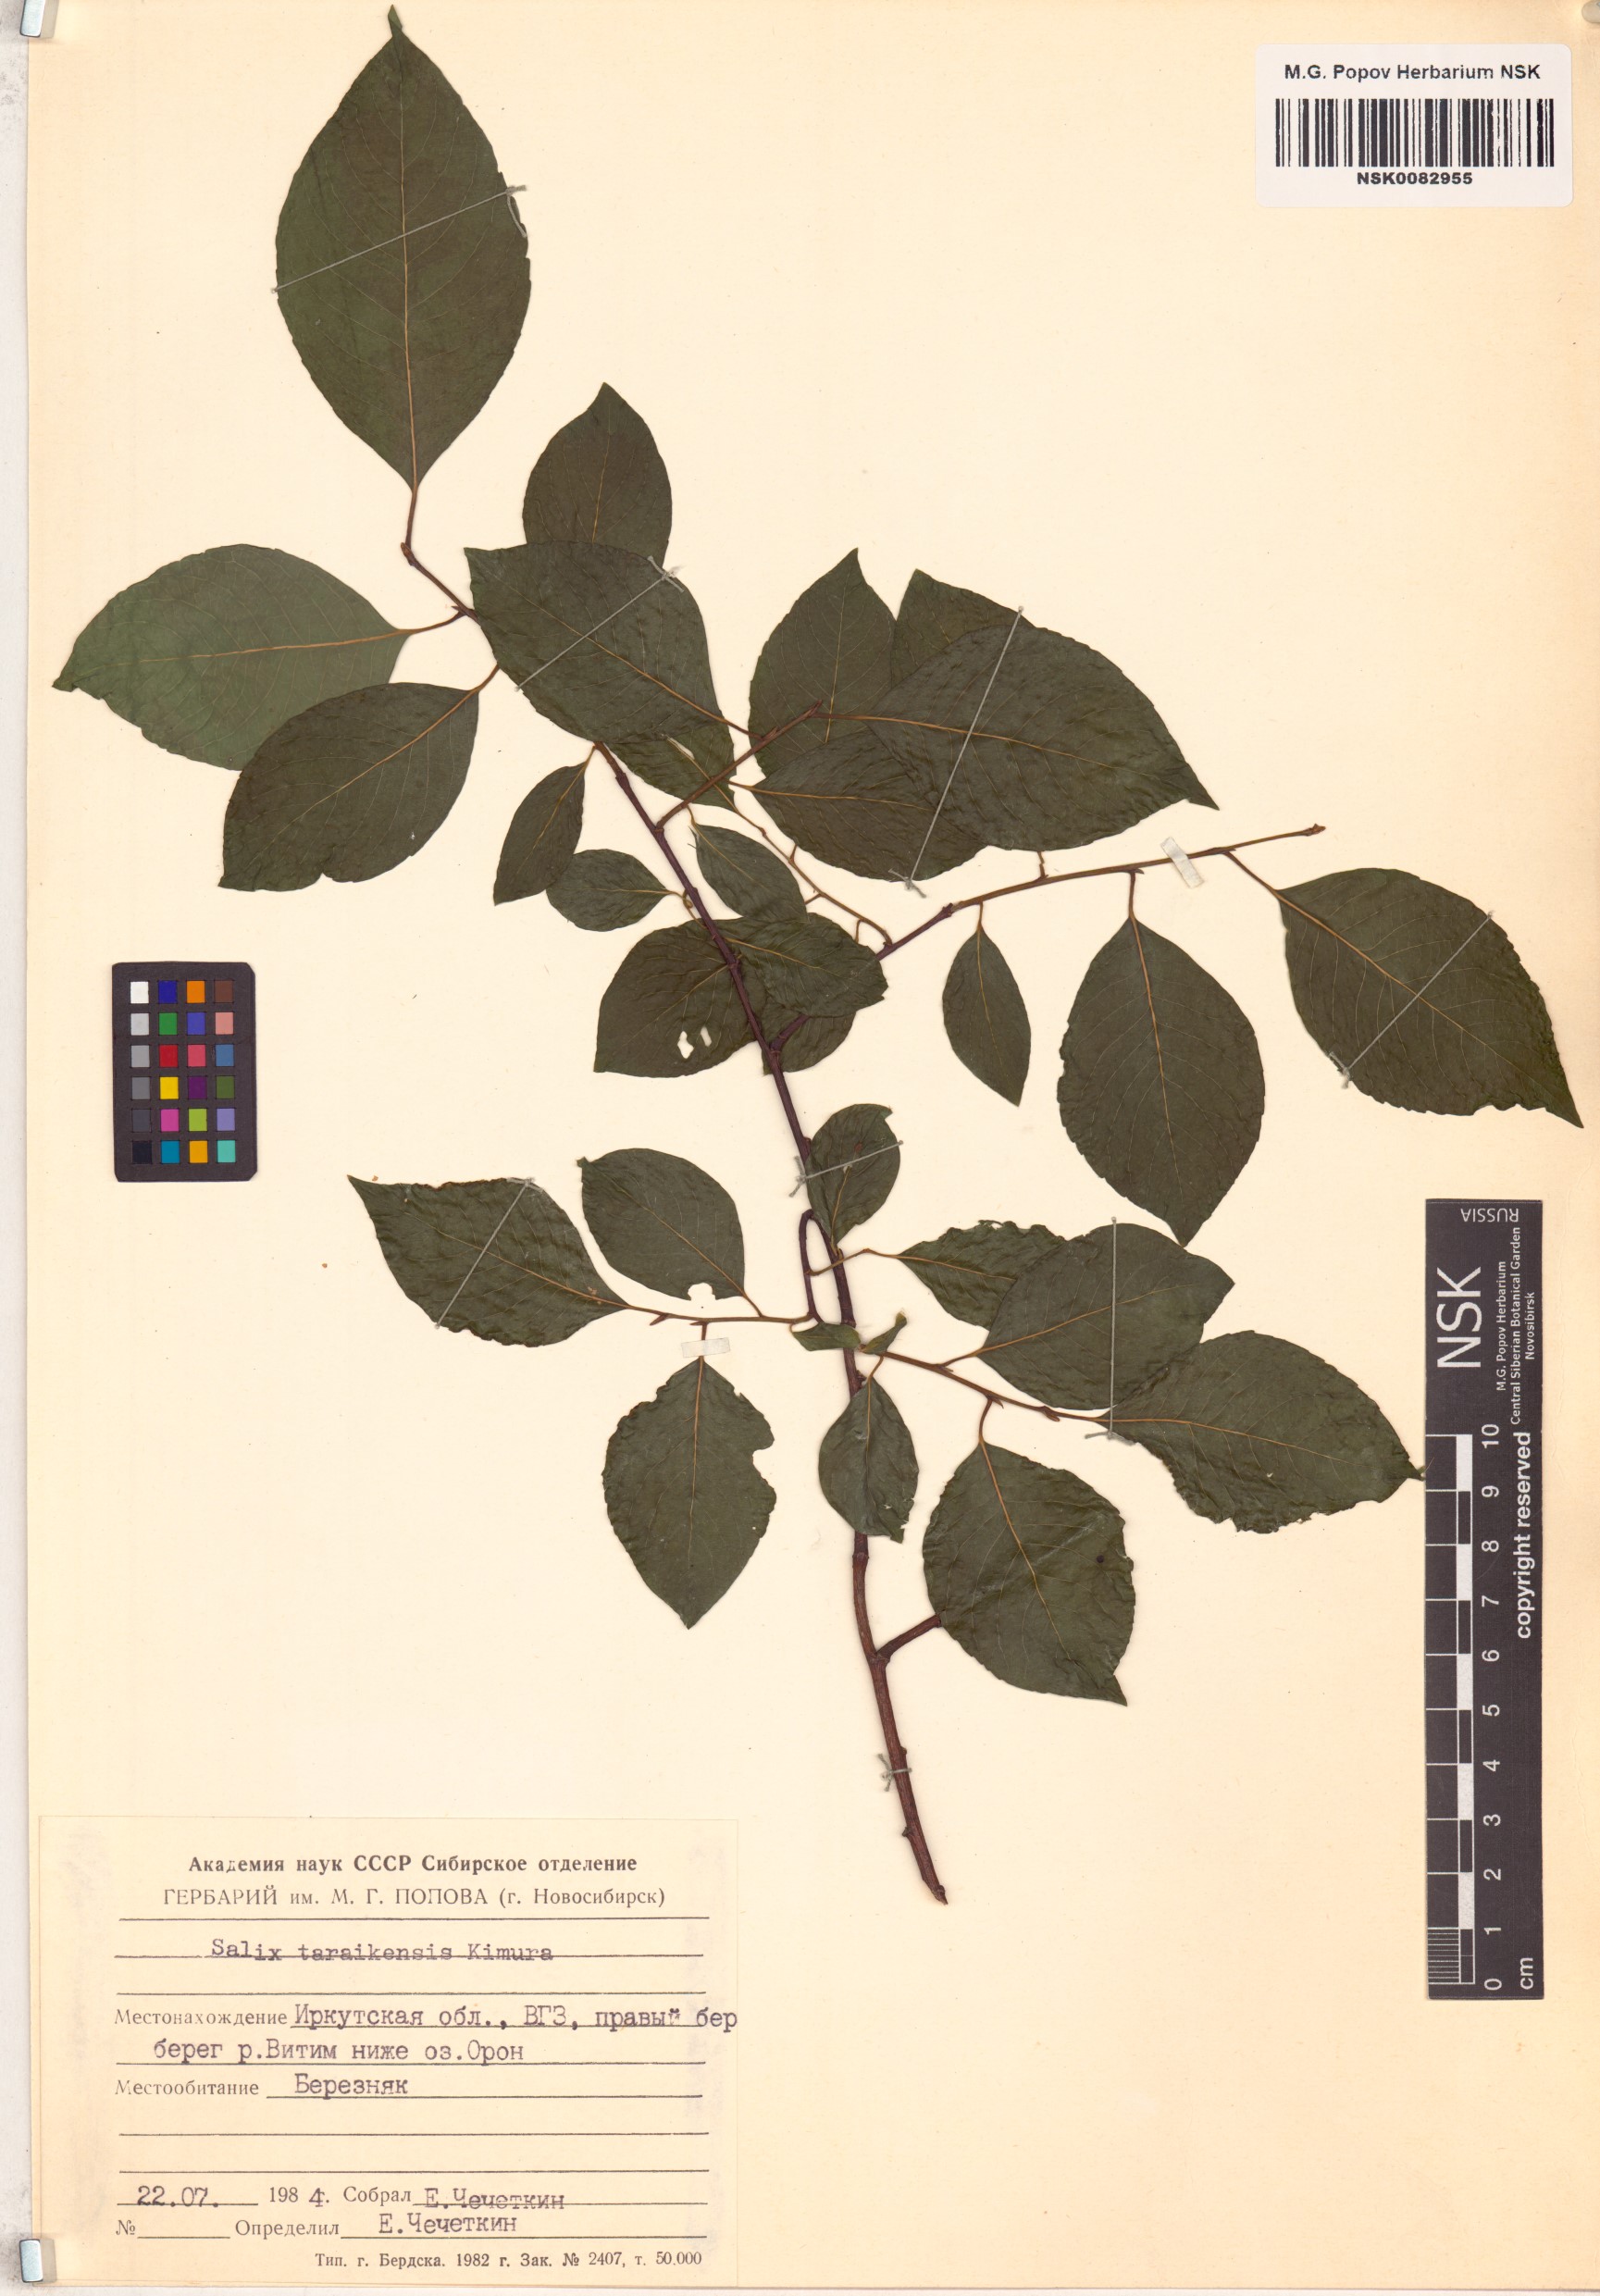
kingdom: Plantae
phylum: Tracheophyta
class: Magnoliopsida
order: Malpighiales
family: Salicaceae
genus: Salix
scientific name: Salix taraikensis
